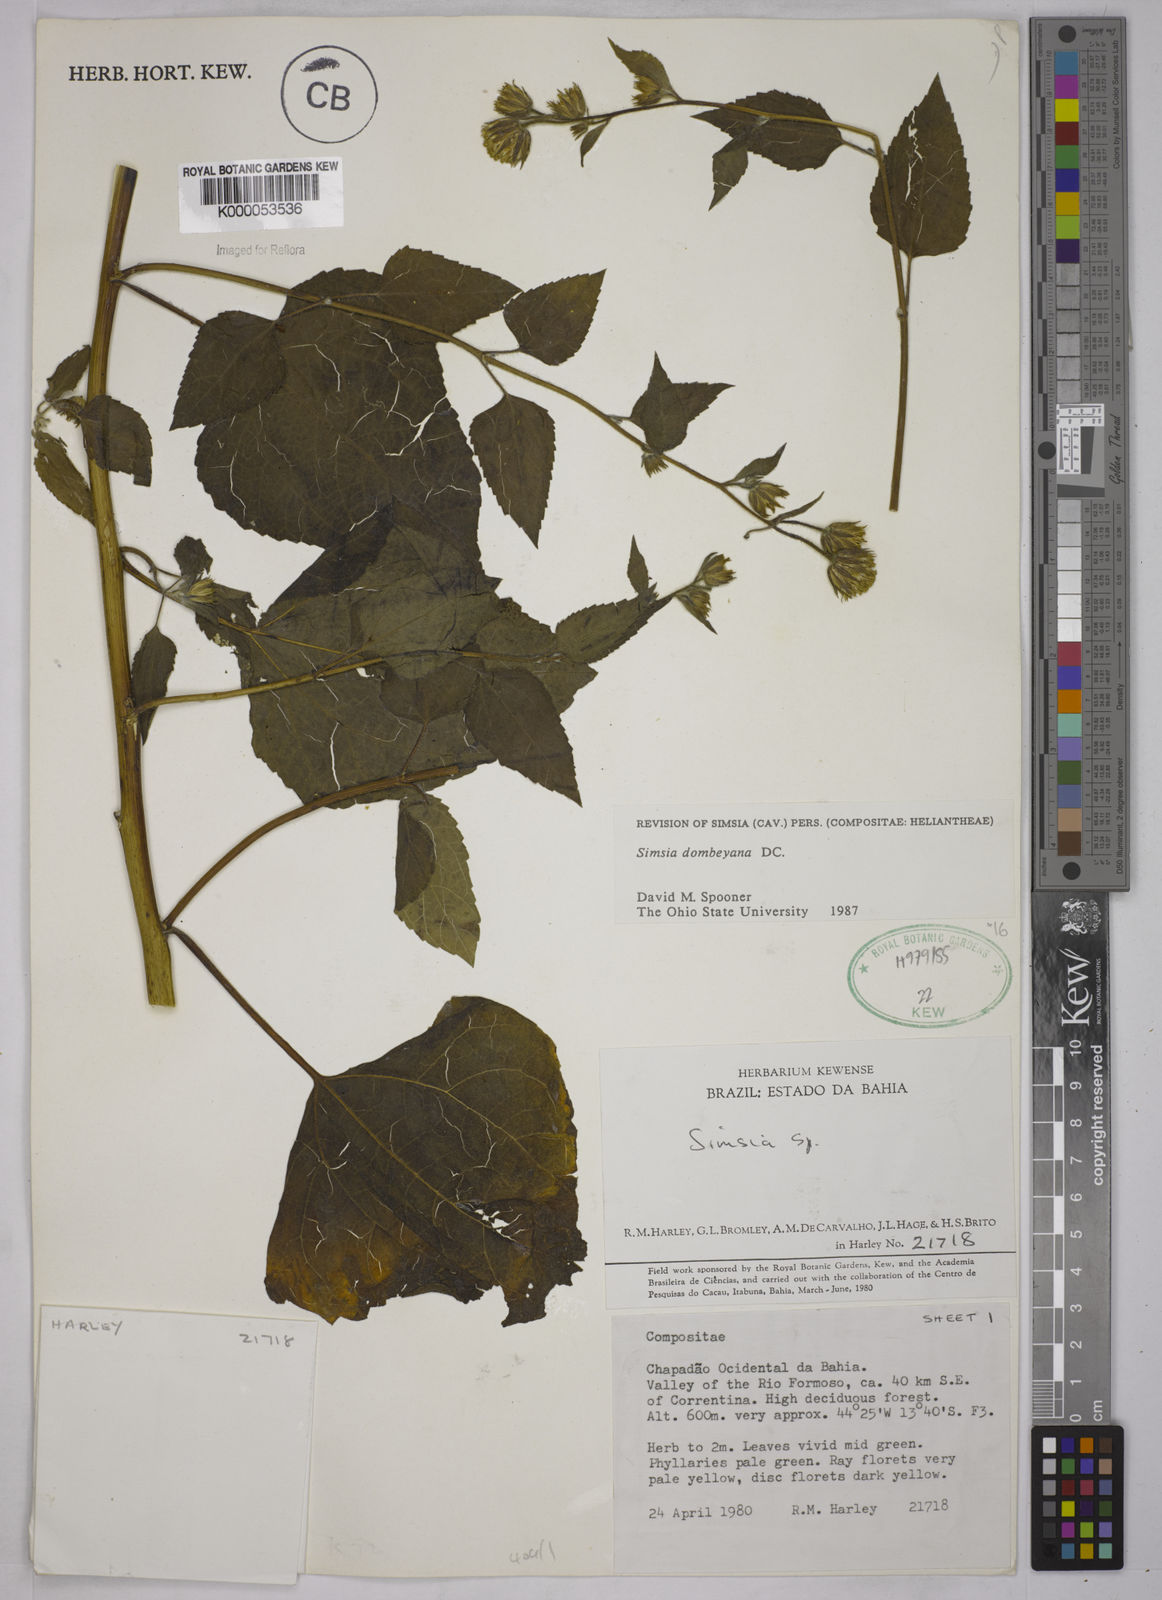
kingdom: Plantae
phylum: Tracheophyta
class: Magnoliopsida
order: Asterales
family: Asteraceae
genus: Simsia
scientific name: Simsia dombeyana
